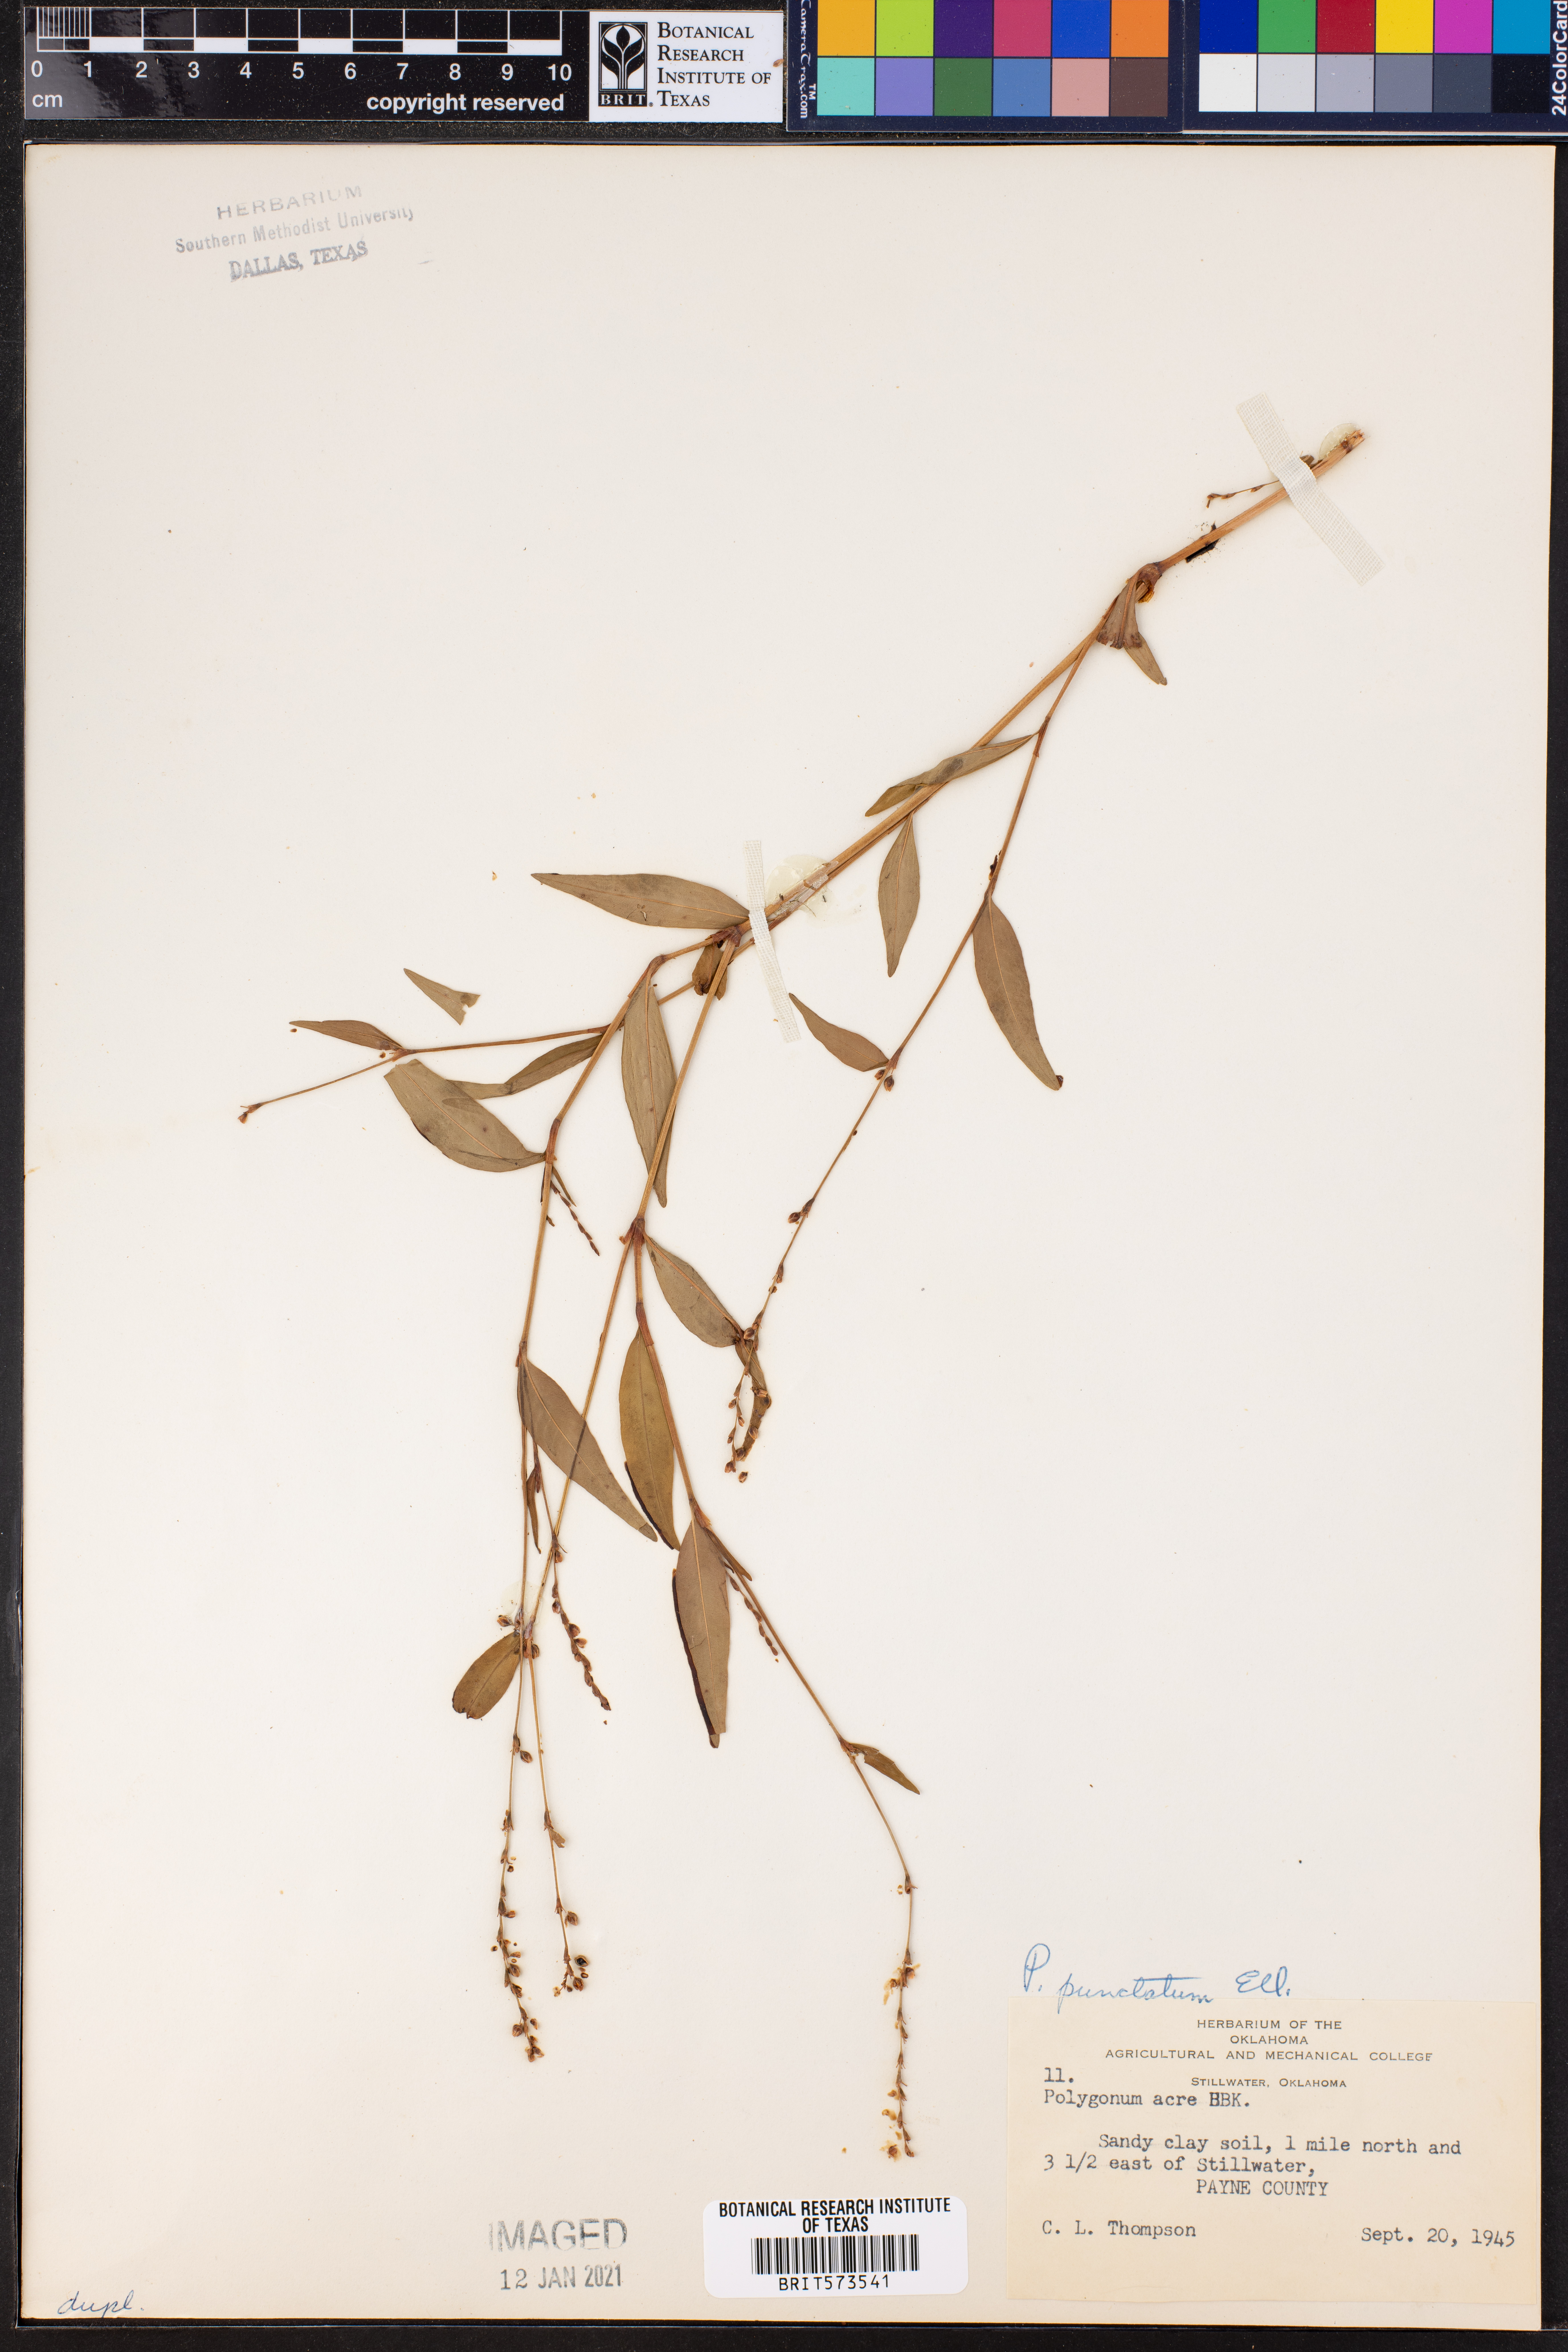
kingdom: Plantae
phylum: Tracheophyta
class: Magnoliopsida
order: Caryophyllales
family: Polygonaceae
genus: Persicaria
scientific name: Persicaria punctata
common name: Dotted smartweed
